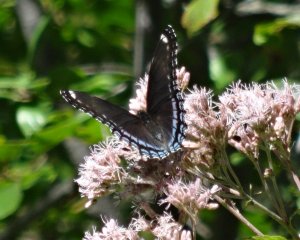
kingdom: Animalia
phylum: Arthropoda
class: Insecta
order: Lepidoptera
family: Nymphalidae
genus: Limenitis
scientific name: Limenitis astyanax
